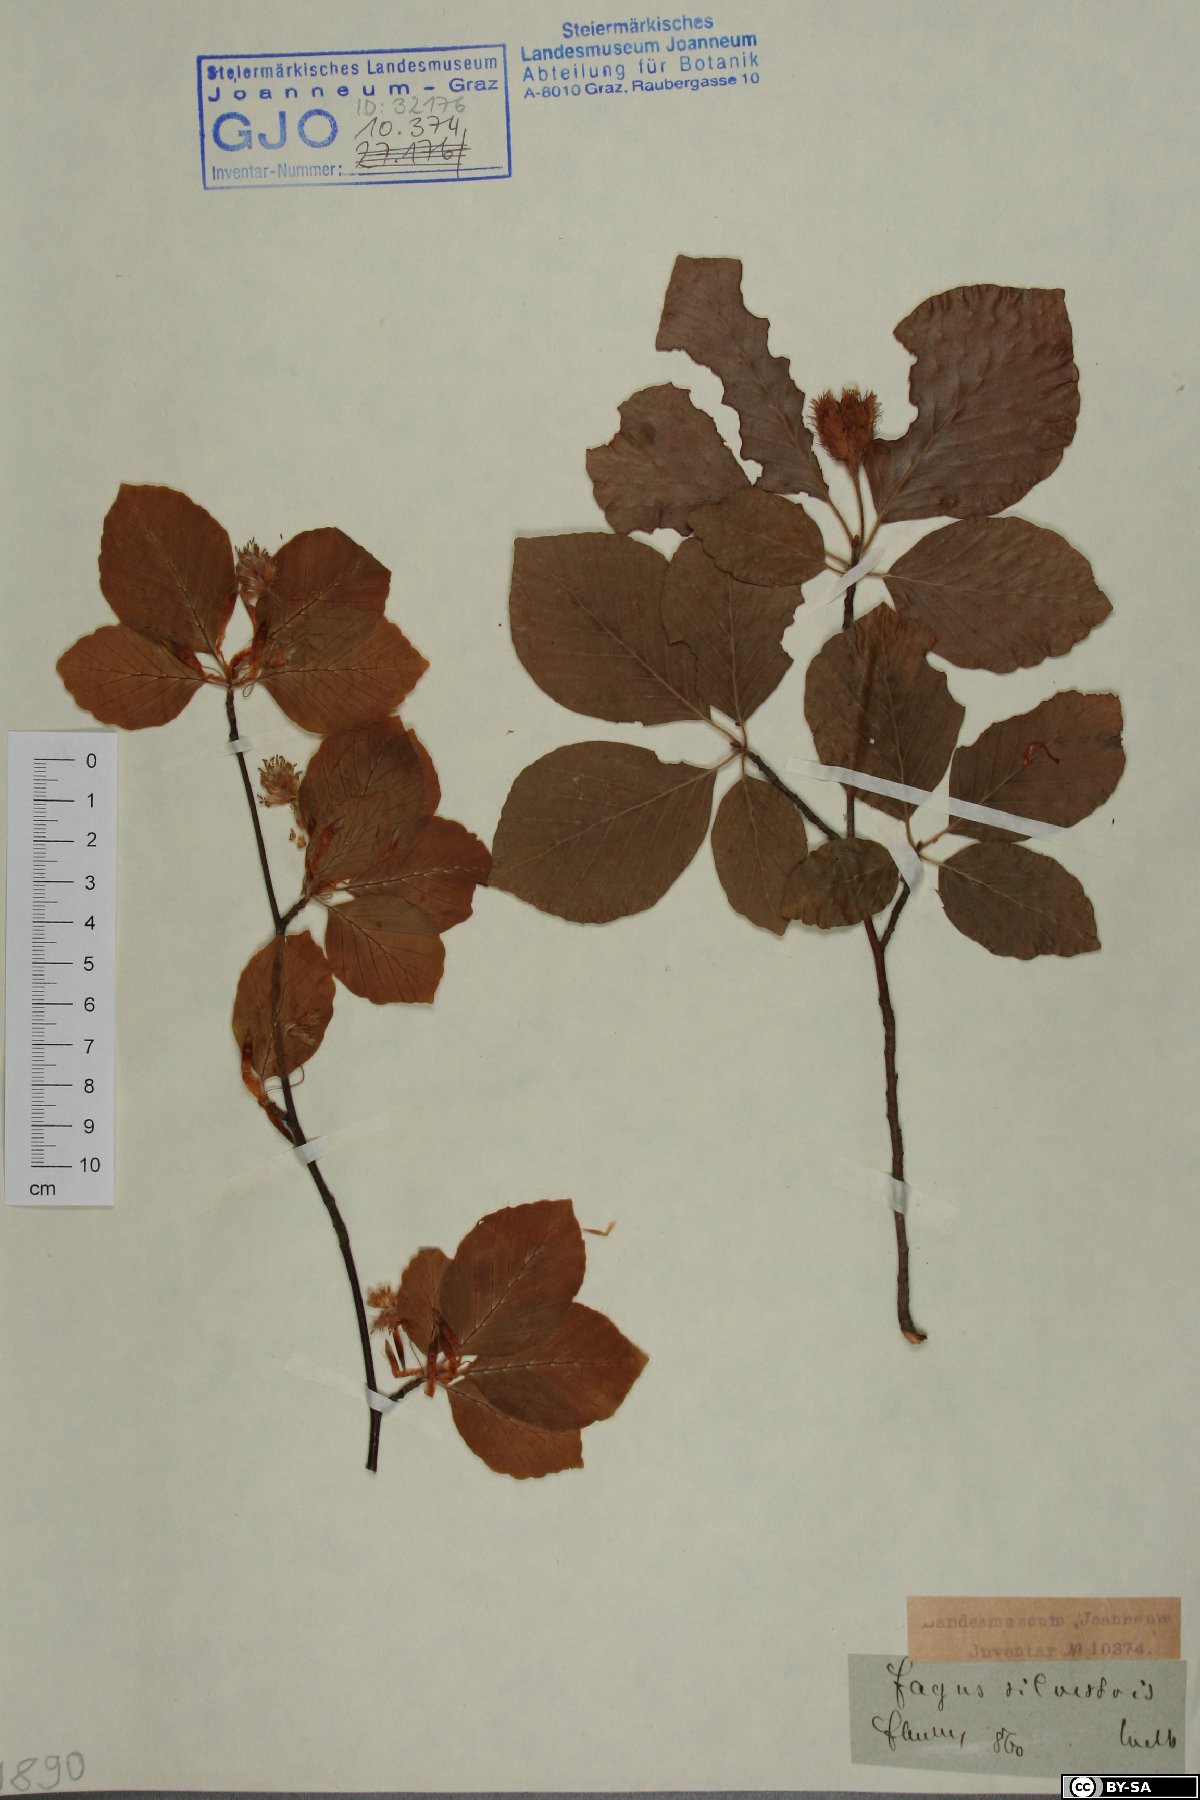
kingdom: Plantae
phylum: Tracheophyta
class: Magnoliopsida
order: Fagales
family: Fagaceae
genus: Fagus
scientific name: Fagus sylvatica
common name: Beech
